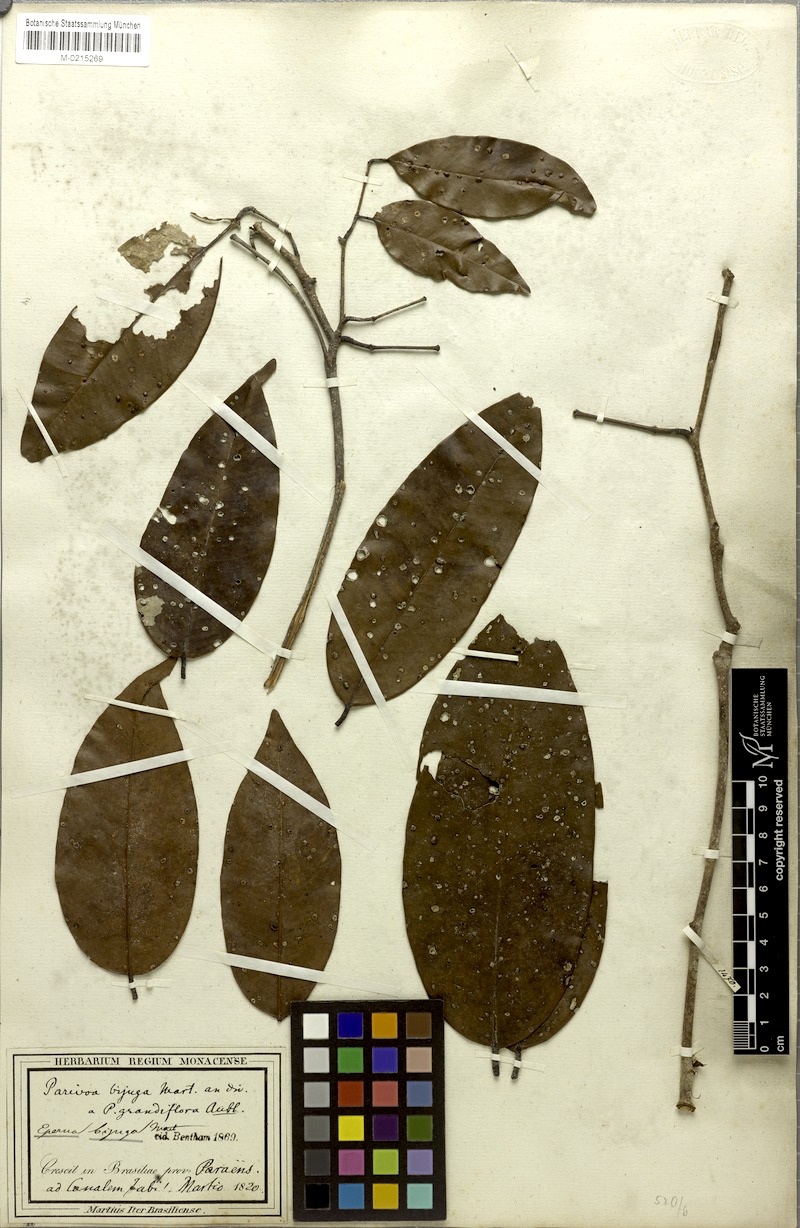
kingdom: Plantae
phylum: Tracheophyta
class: Magnoliopsida
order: Fabales
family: Fabaceae
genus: Eperua
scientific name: Eperua bijuga
